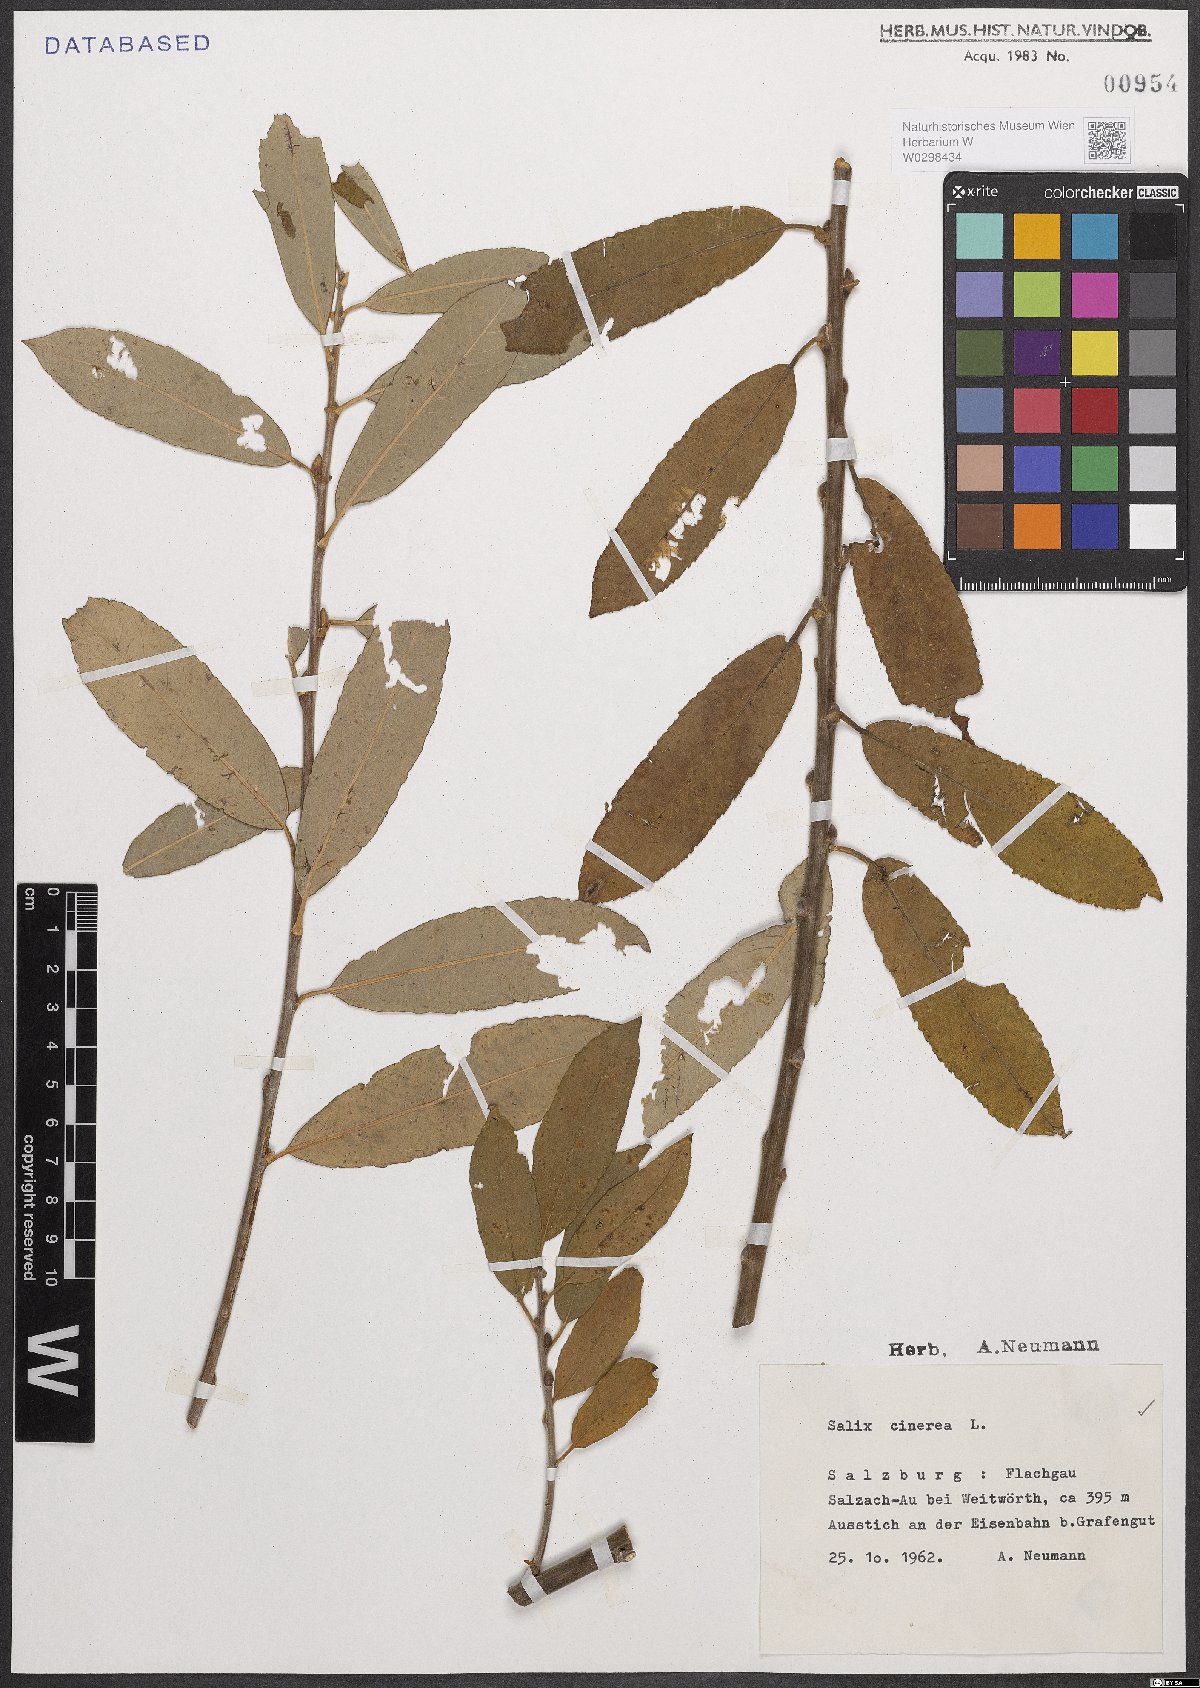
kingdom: Plantae
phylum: Tracheophyta
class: Magnoliopsida
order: Malpighiales
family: Salicaceae
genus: Salix
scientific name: Salix cinerea
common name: Common sallow
